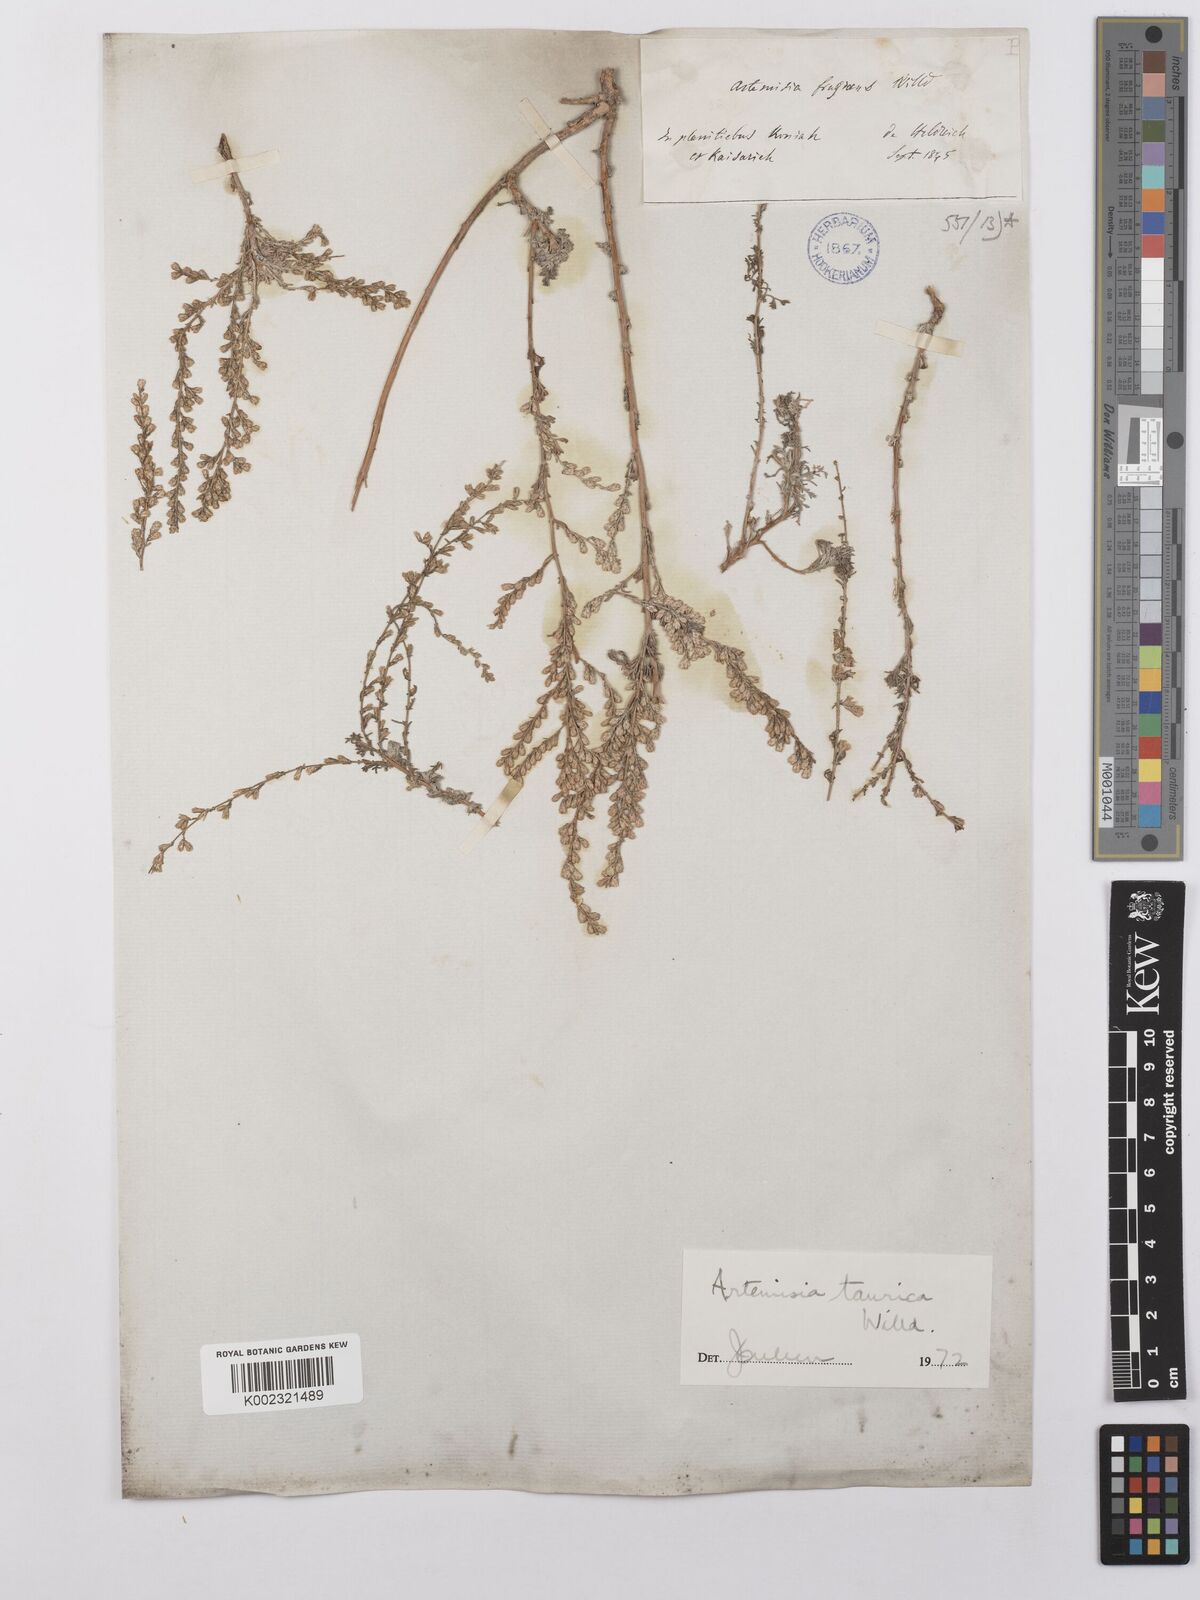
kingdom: Plantae
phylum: Tracheophyta
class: Magnoliopsida
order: Asterales
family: Asteraceae
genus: Artemisia
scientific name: Artemisia taurica
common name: Tauric wormwood
